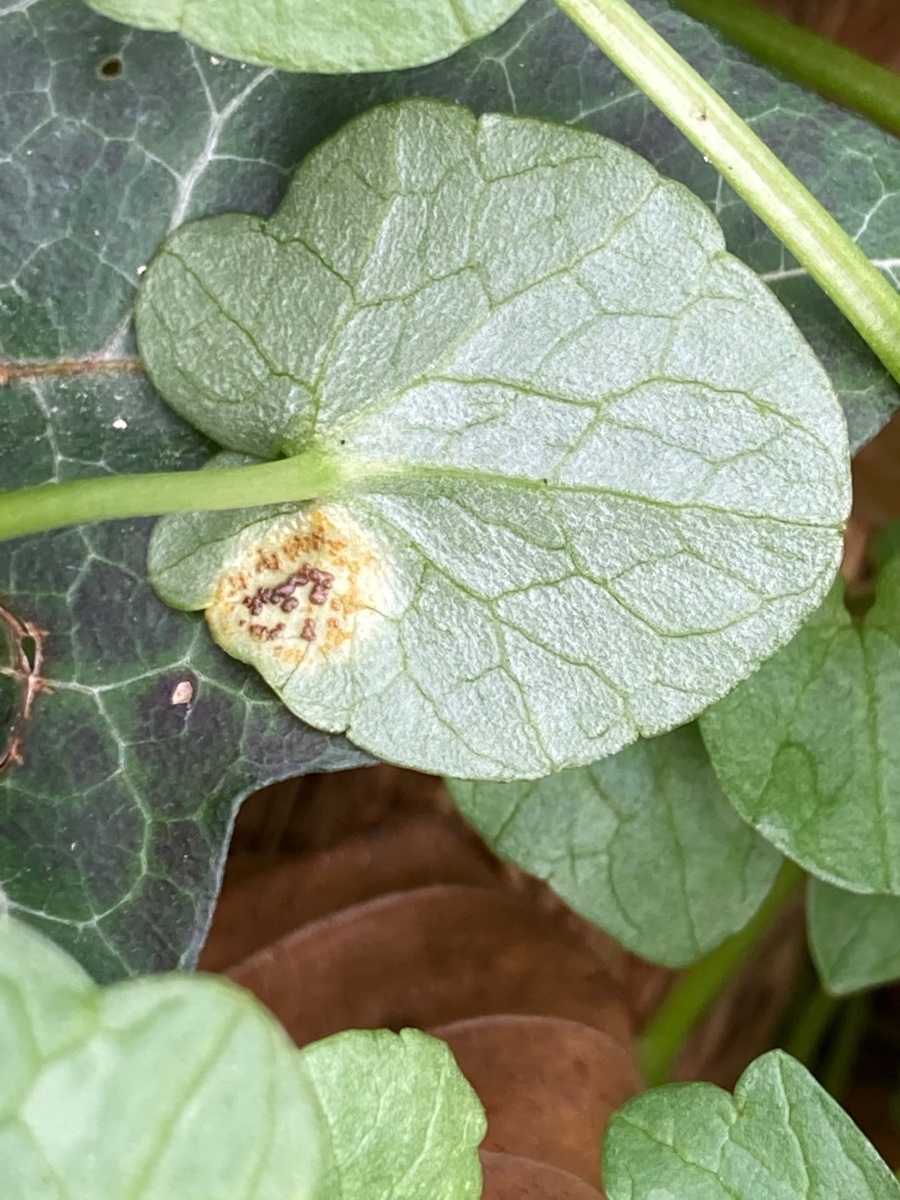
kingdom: Fungi
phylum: Basidiomycota
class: Pucciniomycetes
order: Pucciniales
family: Pucciniaceae
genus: Uromyces
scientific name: Uromyces ficariae
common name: vorterod-encellerust
